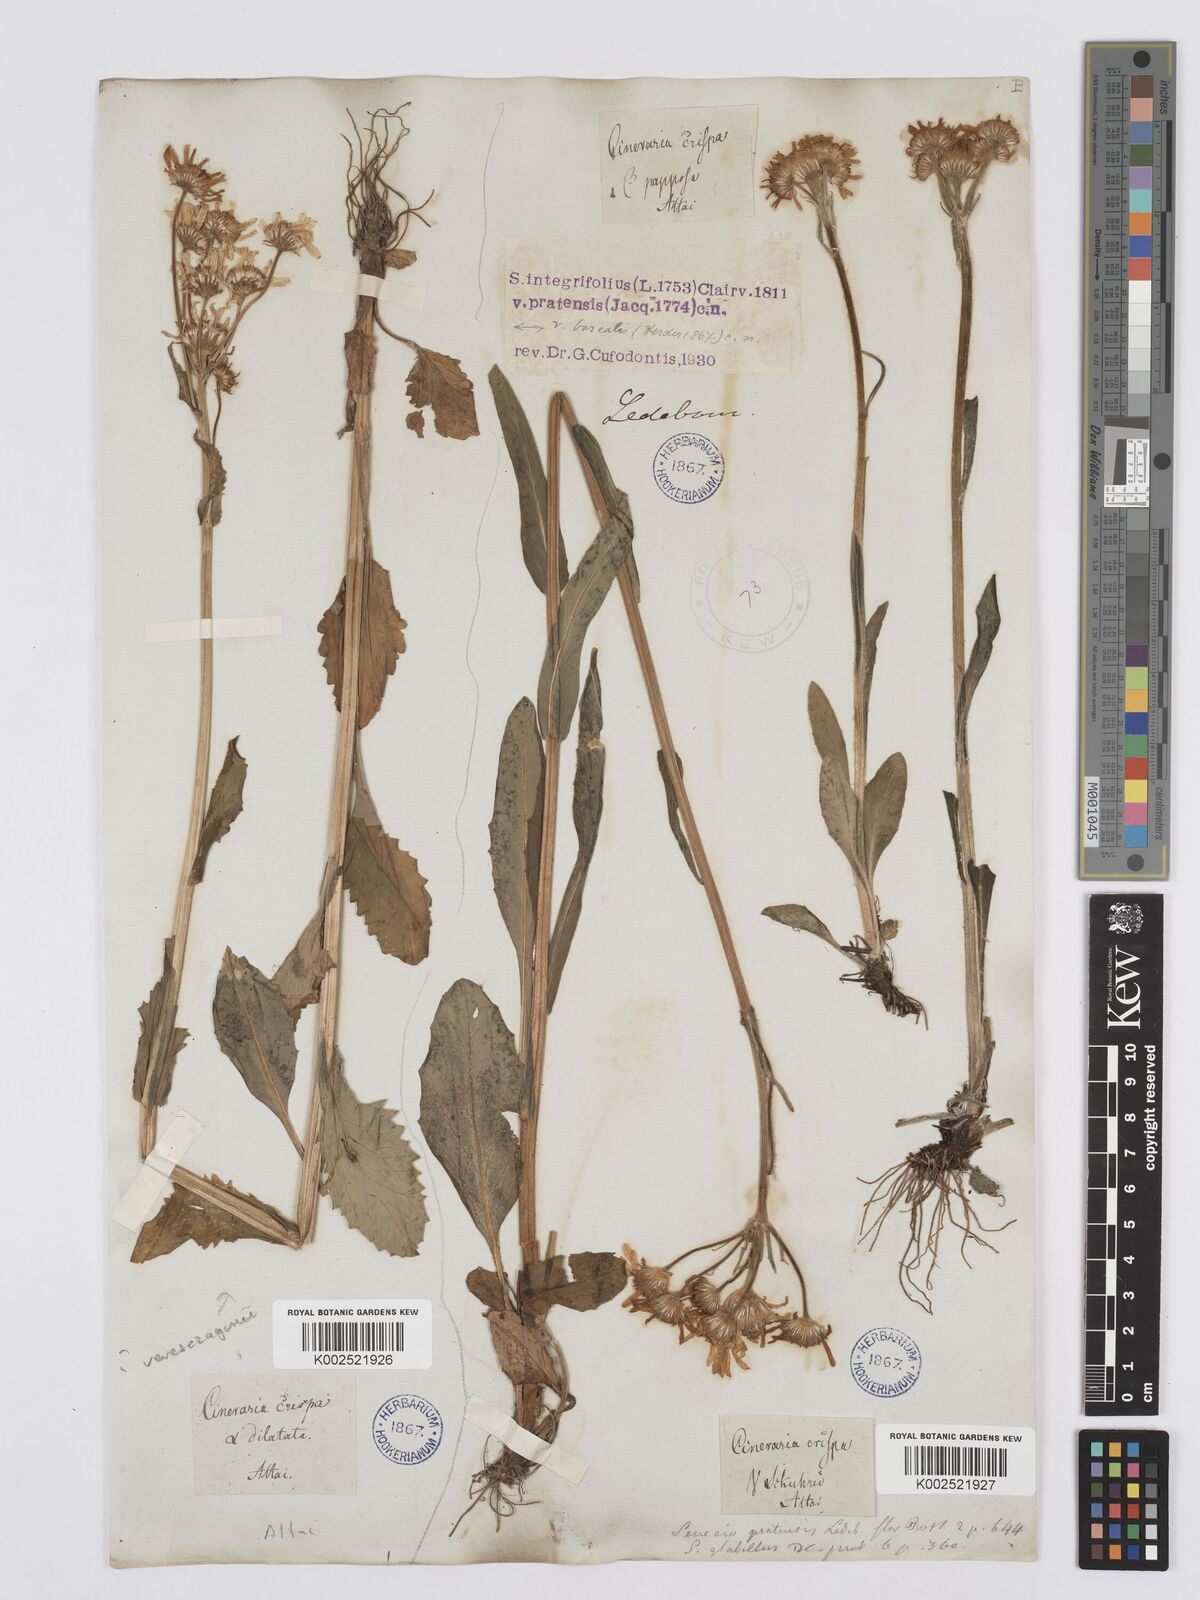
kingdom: Plantae
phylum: Tracheophyta
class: Magnoliopsida
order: Asterales
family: Asteraceae
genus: Tephroseris
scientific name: Tephroseris integrifolia
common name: Field fleawort
